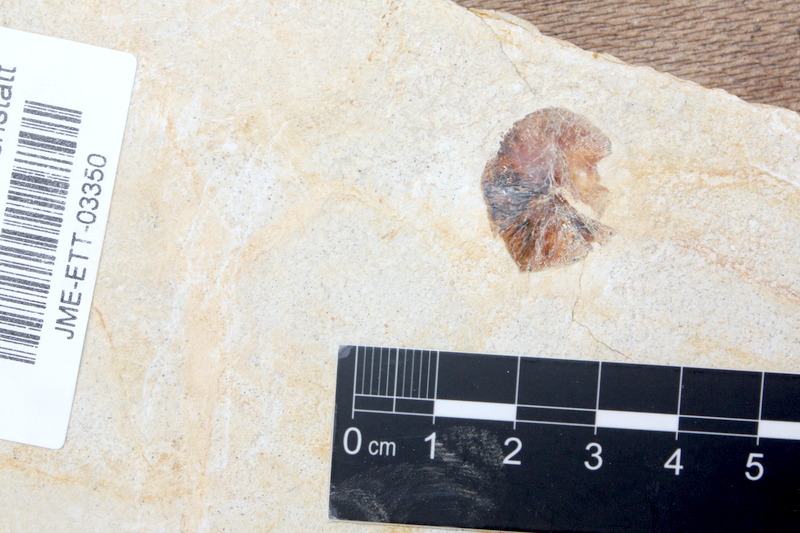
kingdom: Animalia
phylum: Chordata
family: Pycnodontidae
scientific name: Pycnodontidae
